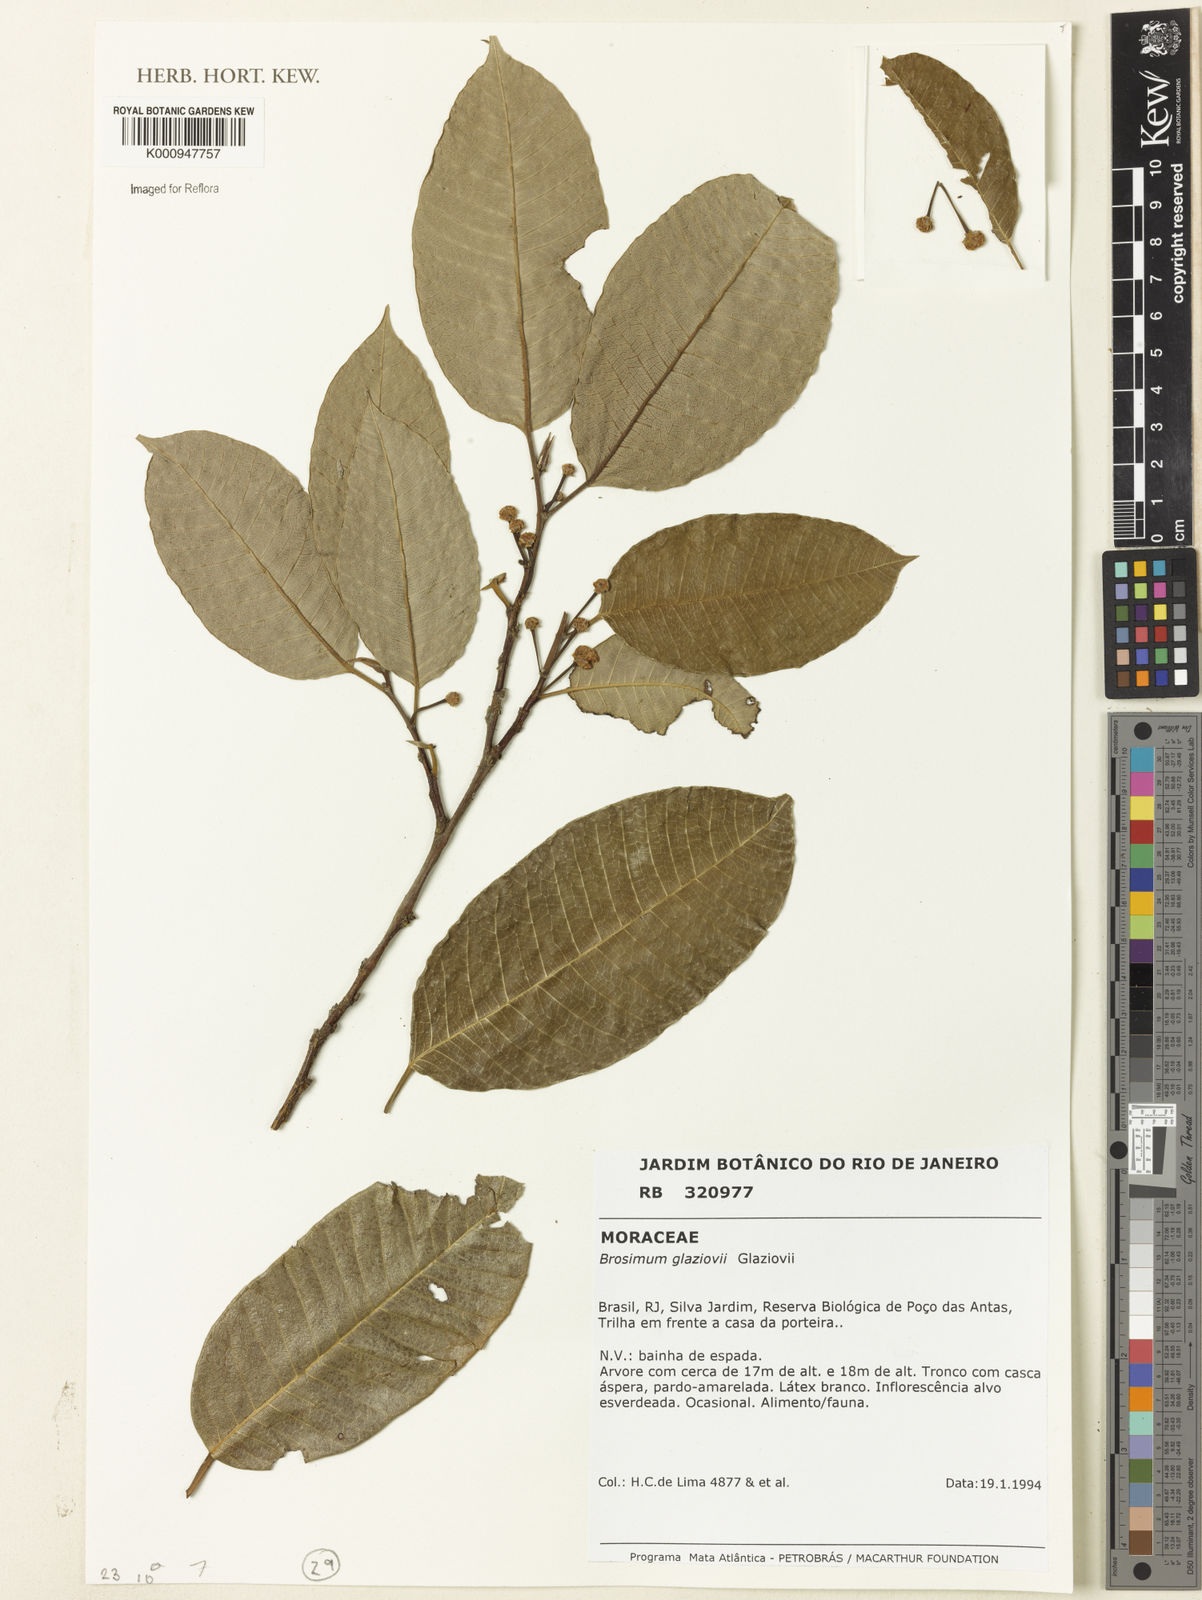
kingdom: Plantae
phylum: Tracheophyta
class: Magnoliopsida
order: Rosales
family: Moraceae
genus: Brosimum
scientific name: Brosimum glaziovii
